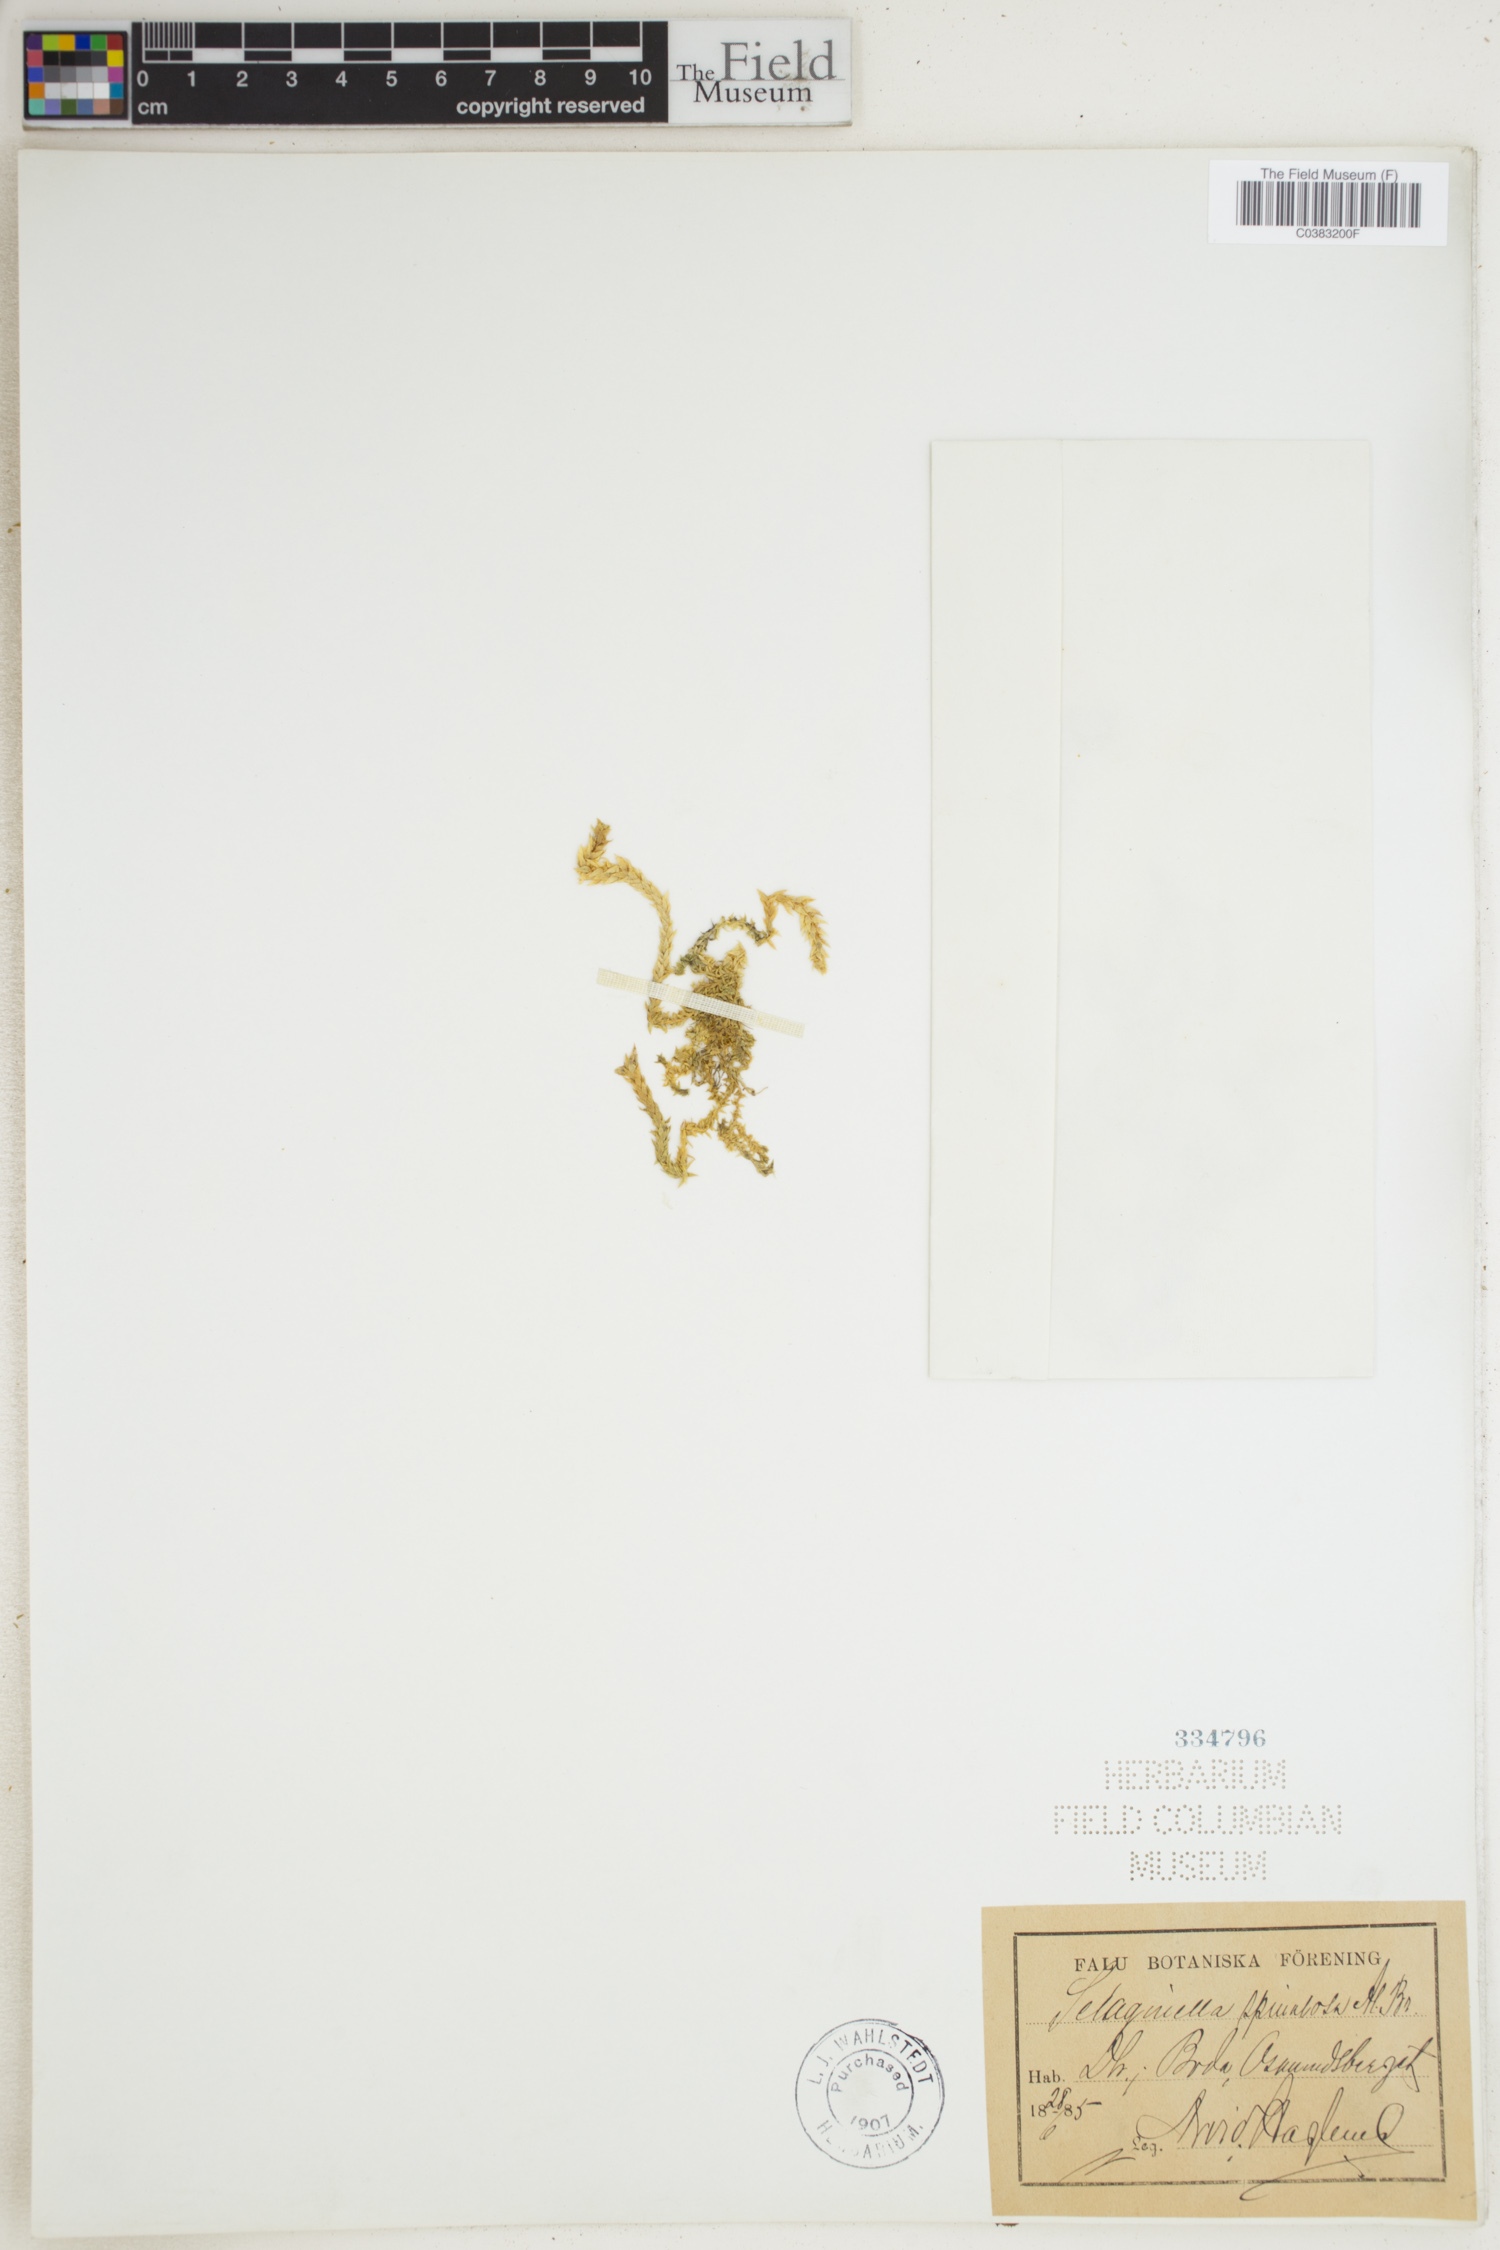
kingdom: Plantae
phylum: Tracheophyta
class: Lycopodiopsida
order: Selaginellales
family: Selaginellaceae
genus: Selaginella
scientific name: Selaginella selaginoides
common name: Prickly mountain-moss
